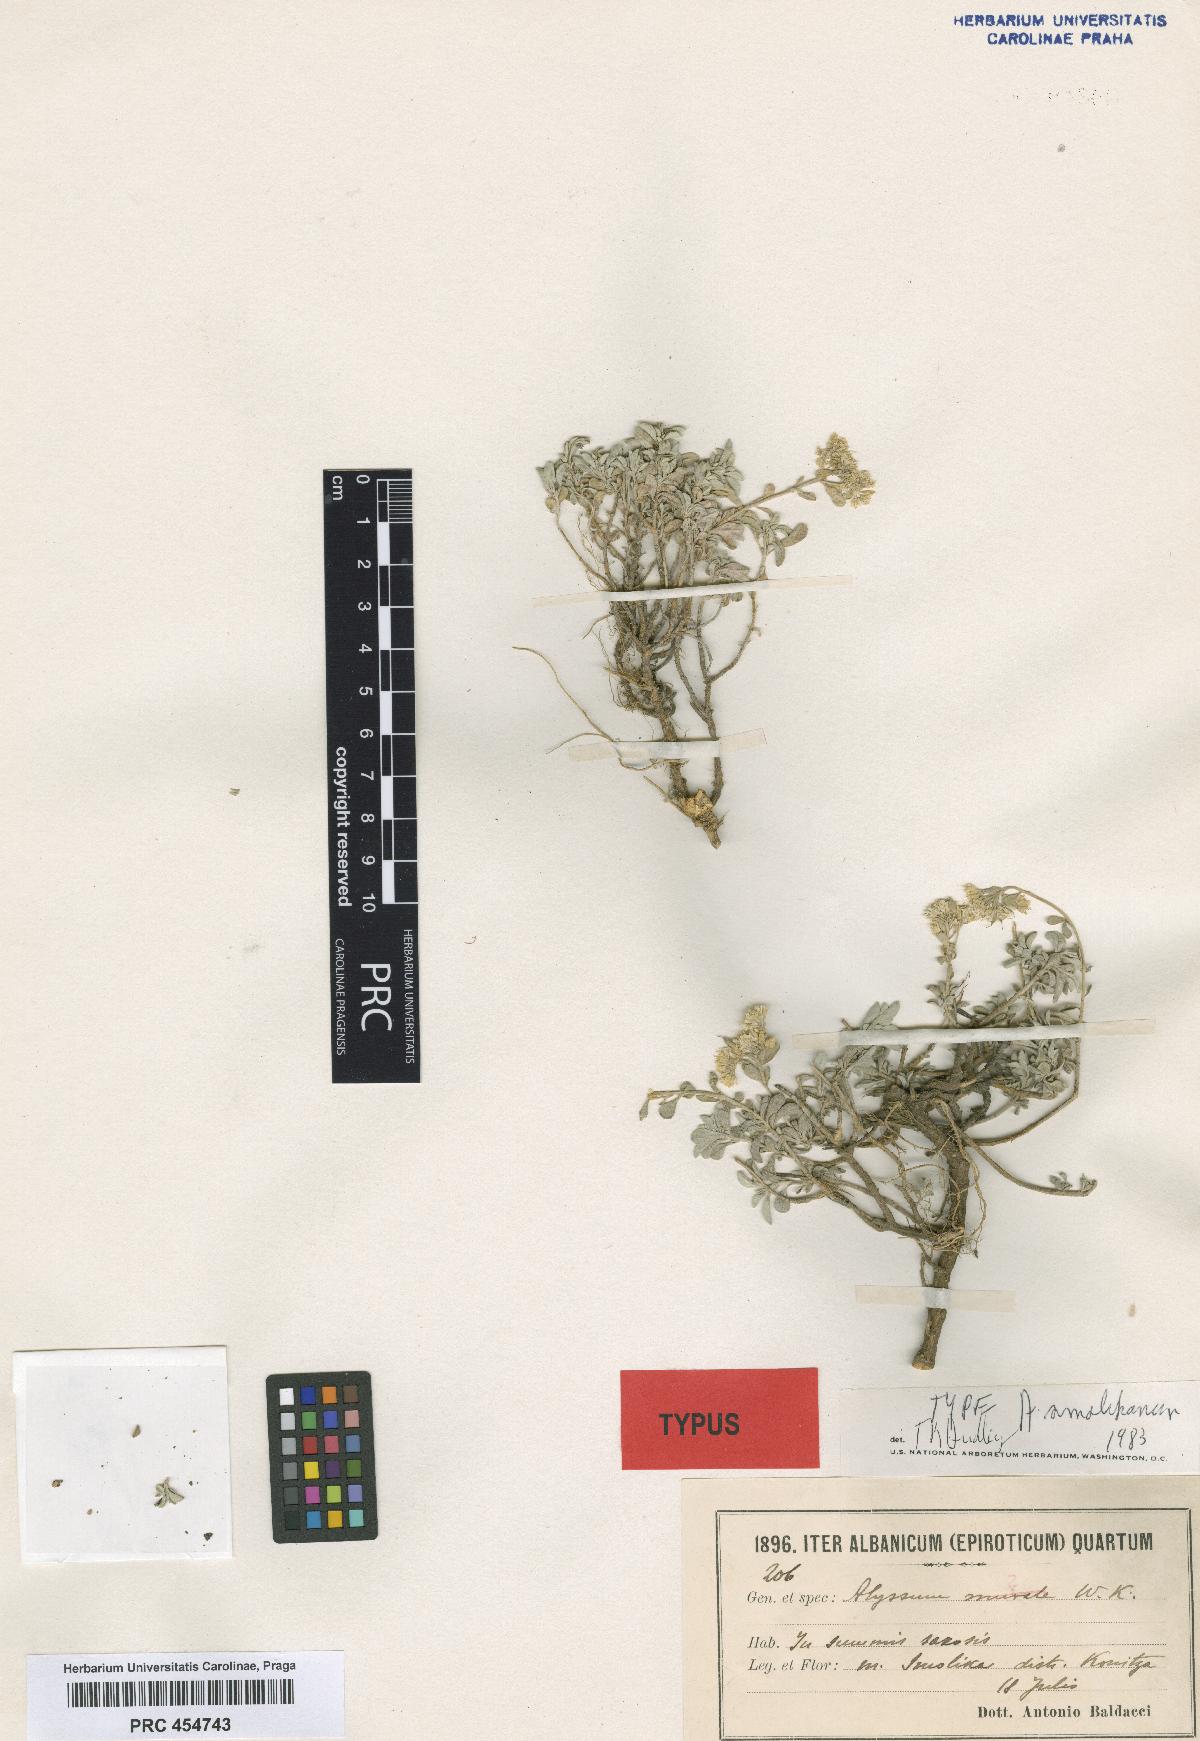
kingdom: Plantae
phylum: Tracheophyta
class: Magnoliopsida
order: Brassicales
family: Brassicaceae
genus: Odontarrhena
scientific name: Odontarrhena smolikana
